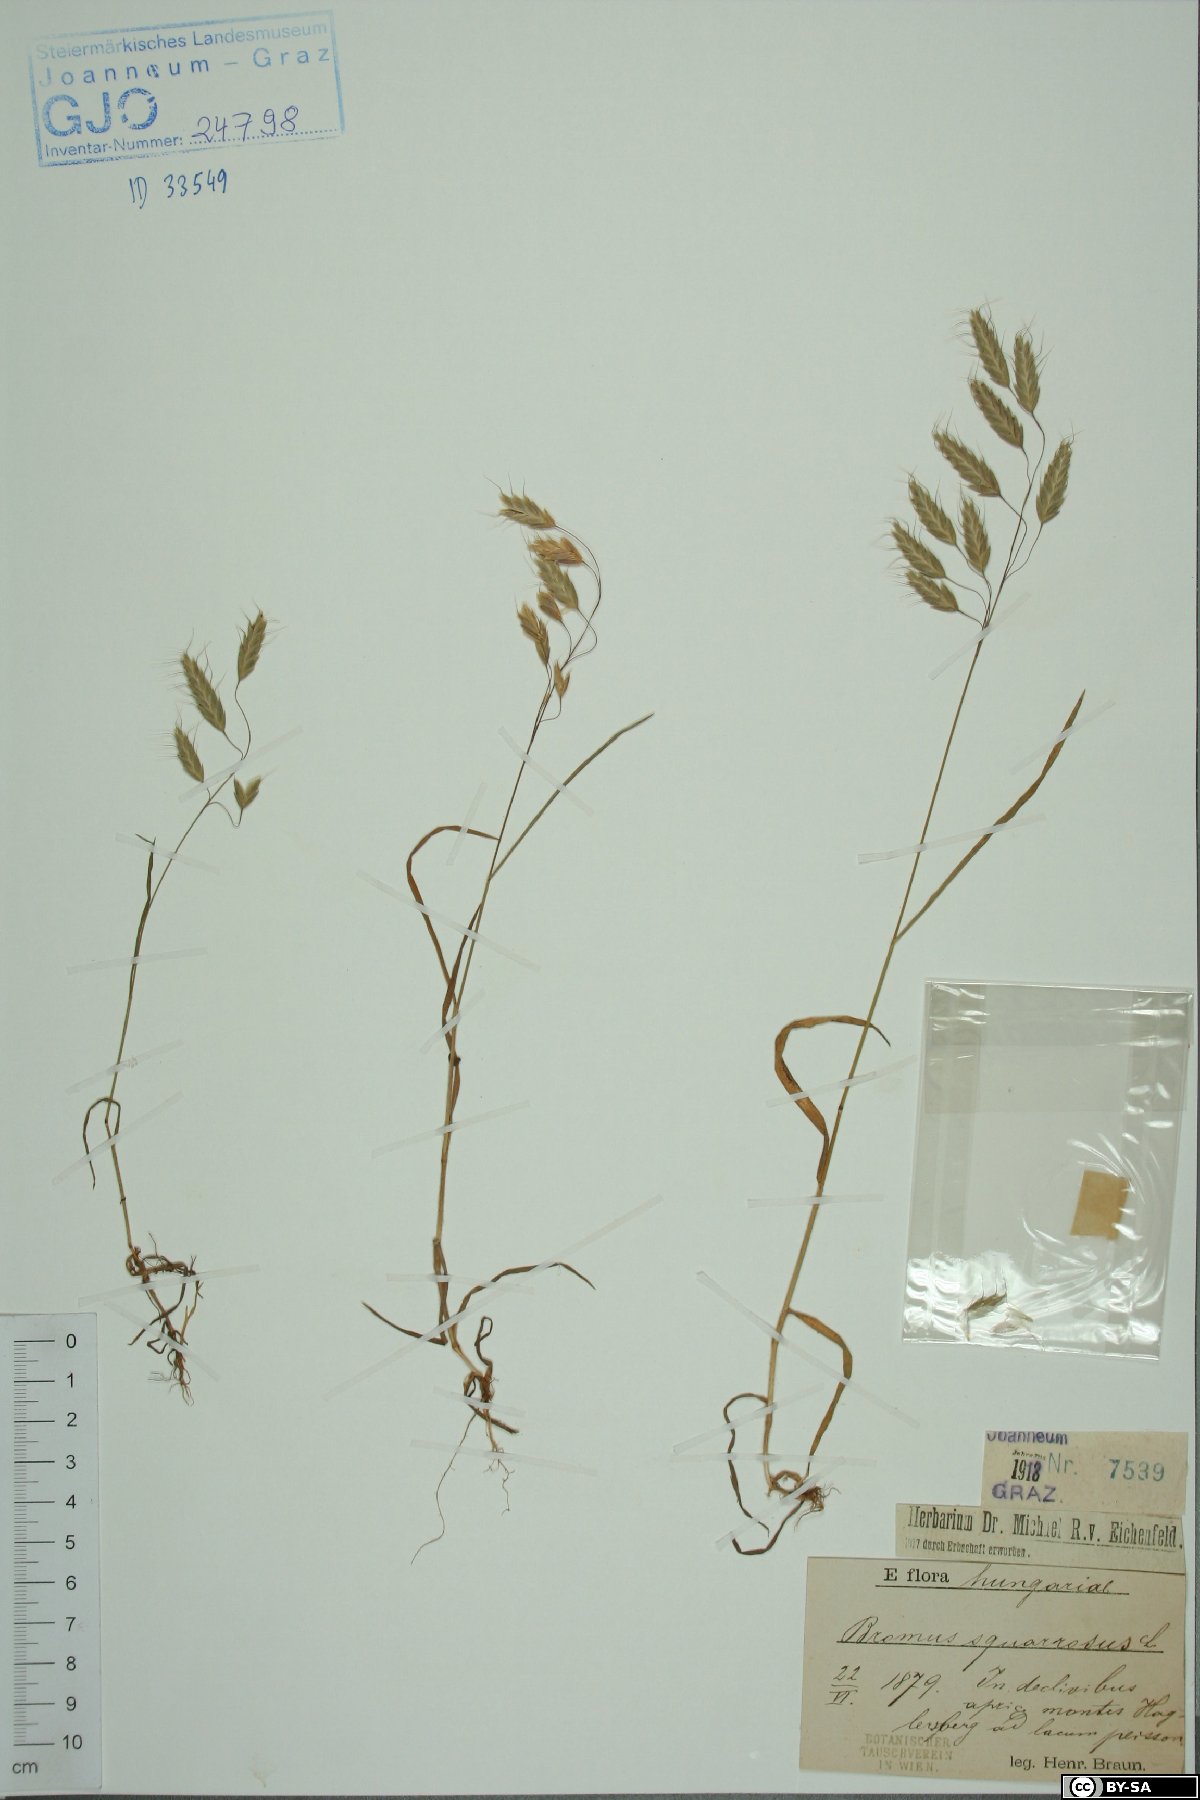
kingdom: Plantae
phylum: Tracheophyta
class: Liliopsida
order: Poales
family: Poaceae
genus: Bromus
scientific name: Bromus squarrosus
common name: Corn brome
